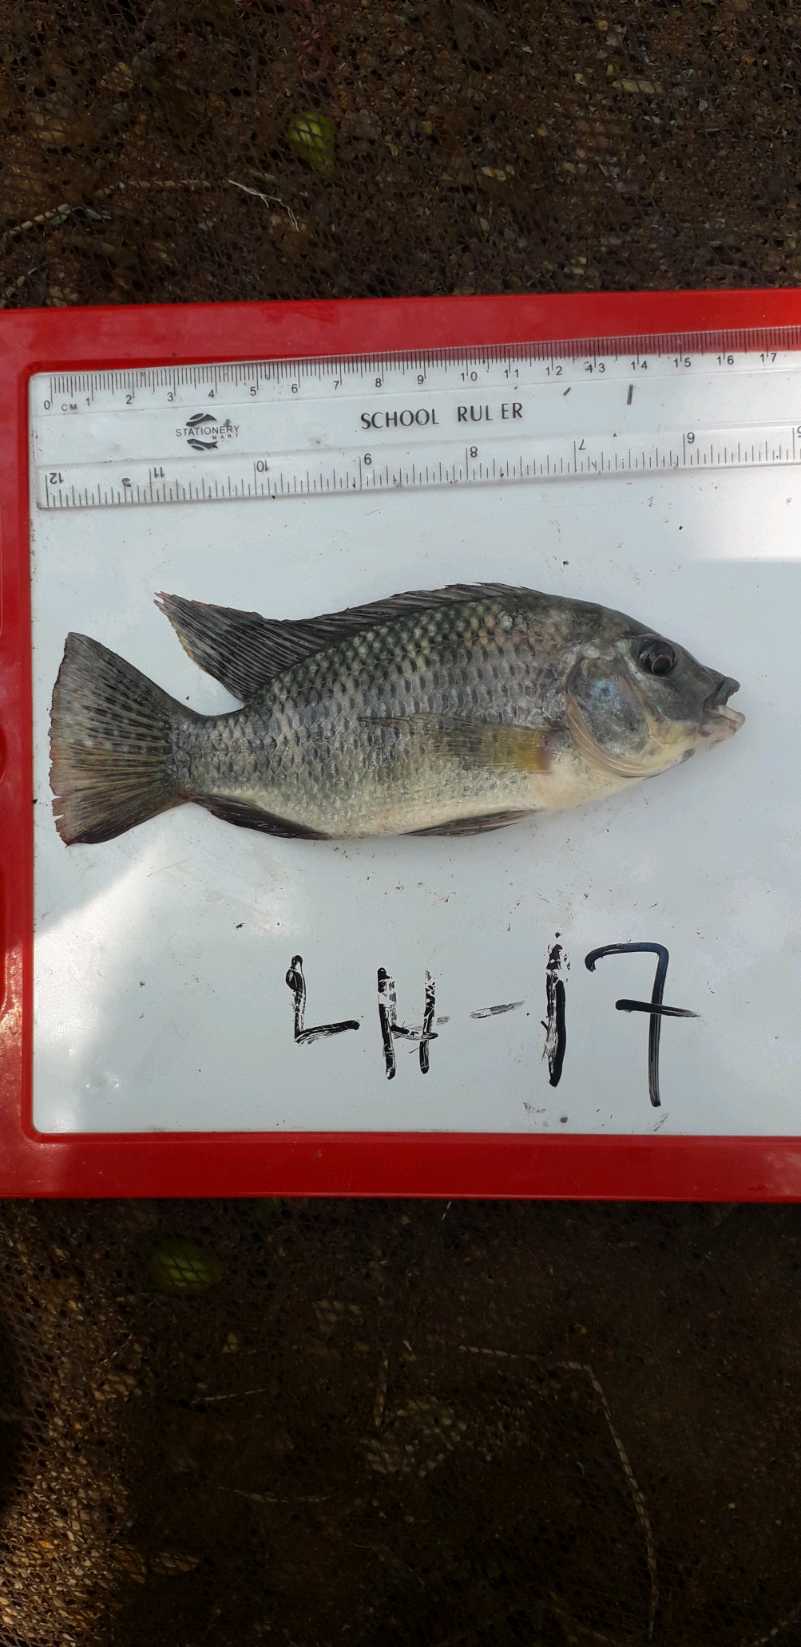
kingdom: Animalia
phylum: Chordata
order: Perciformes
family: Cichlidae
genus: Coptodon
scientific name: Coptodon rendalli
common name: Redbreast tilapia
